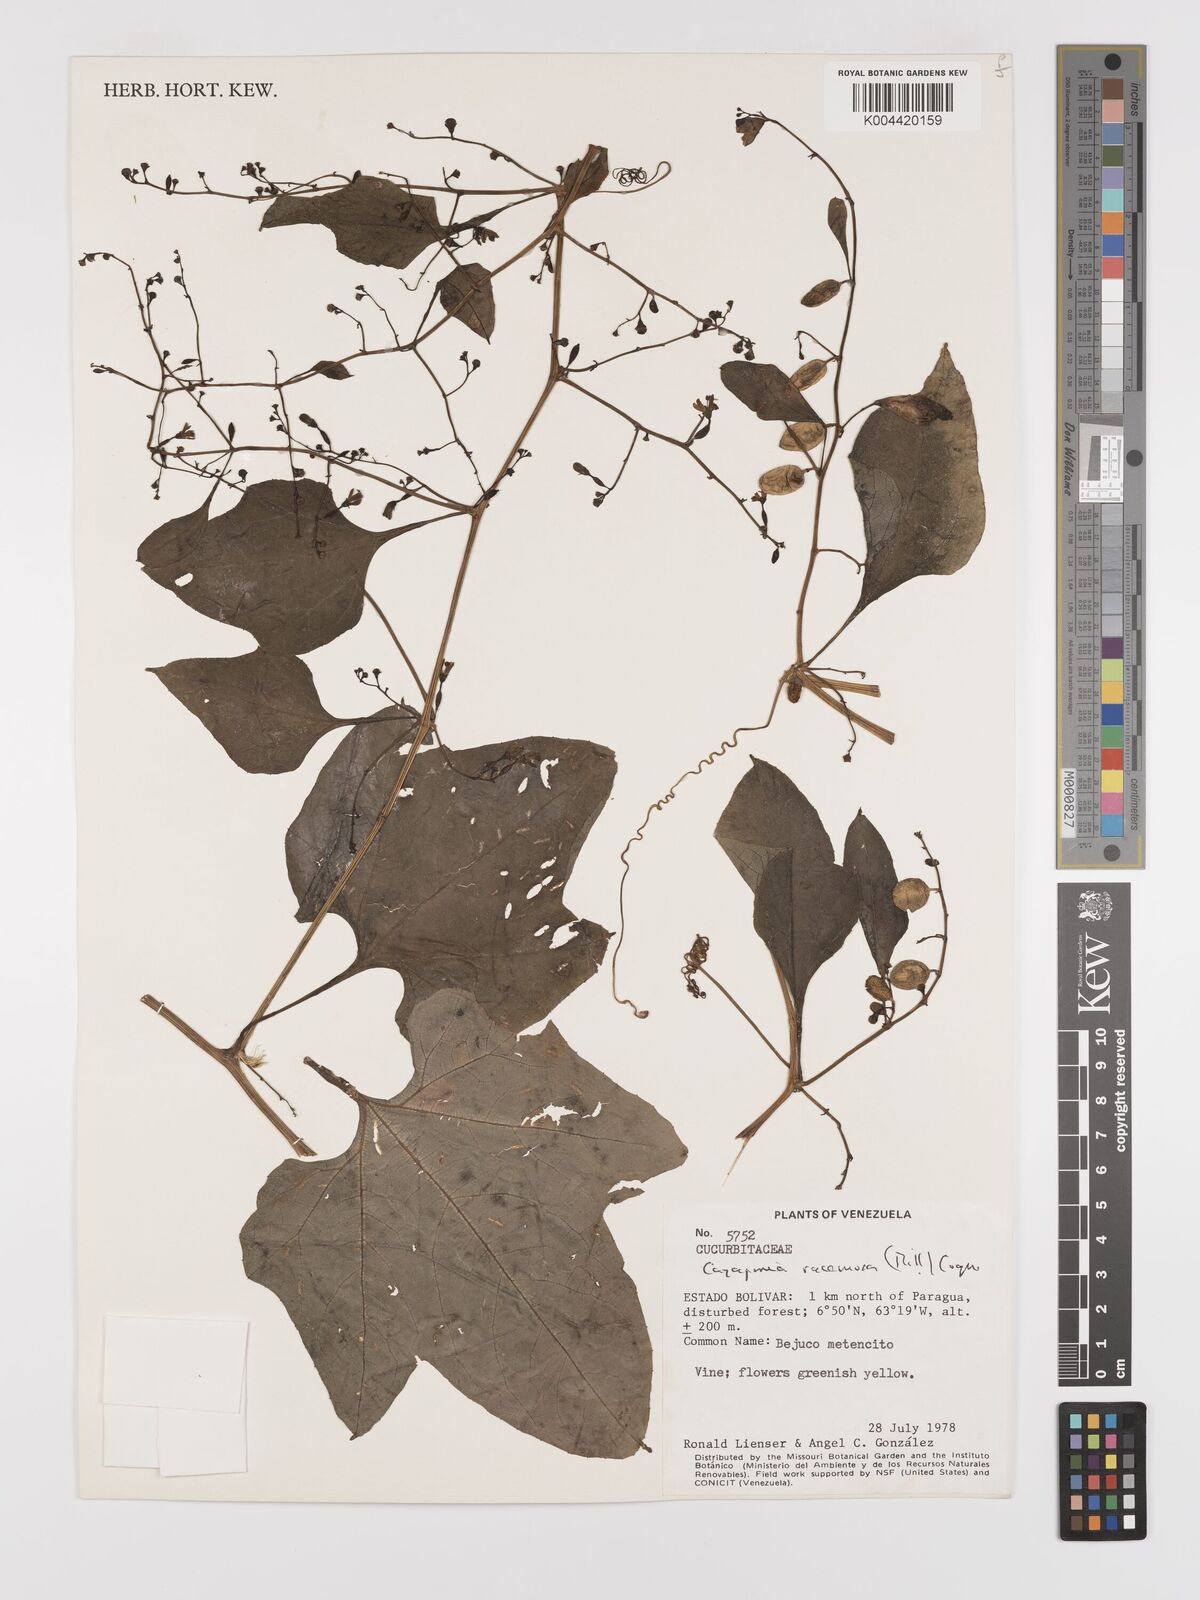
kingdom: Plantae
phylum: Tracheophyta
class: Magnoliopsida
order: Cucurbitales
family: Cucurbitaceae
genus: Cayaponia
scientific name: Cayaponia racemosa
